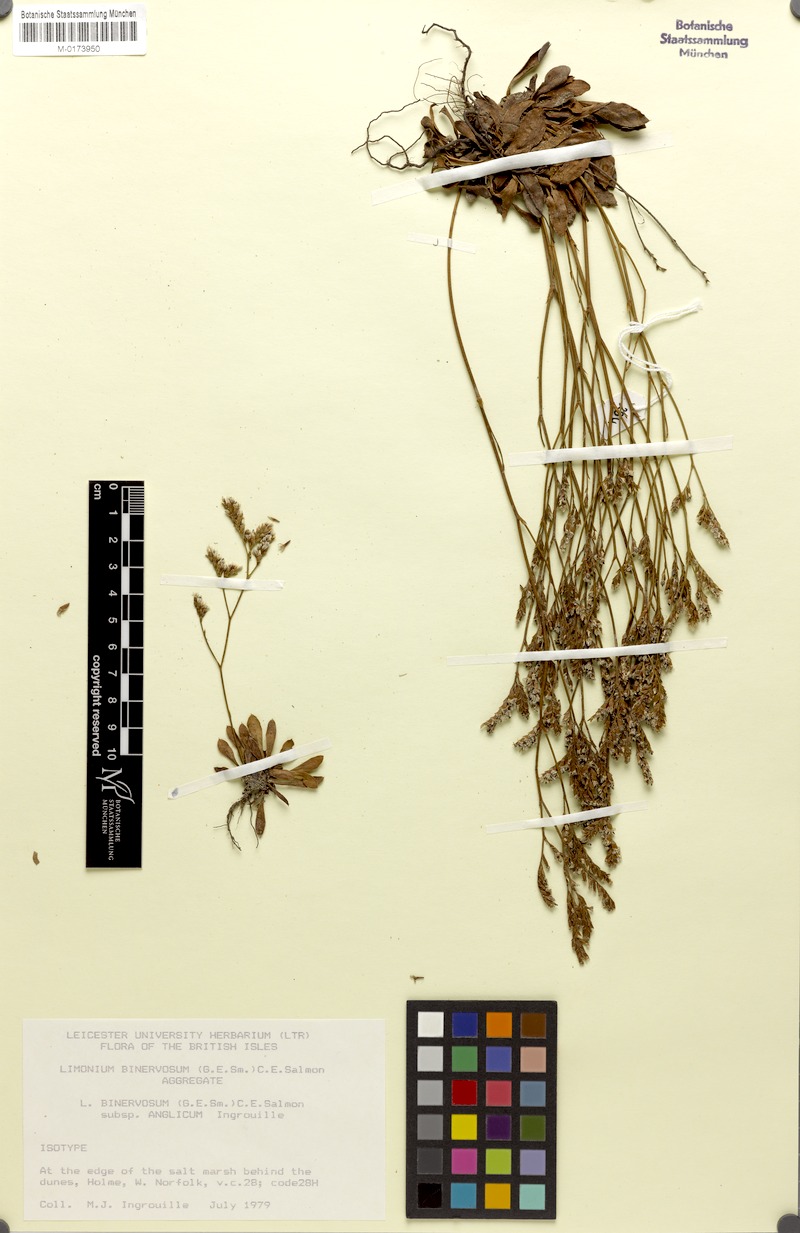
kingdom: Plantae
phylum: Tracheophyta
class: Magnoliopsida
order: Caryophyllales
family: Plumbaginaceae
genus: Limonium
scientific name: Limonium binervosum
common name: Rock sea-lavender
